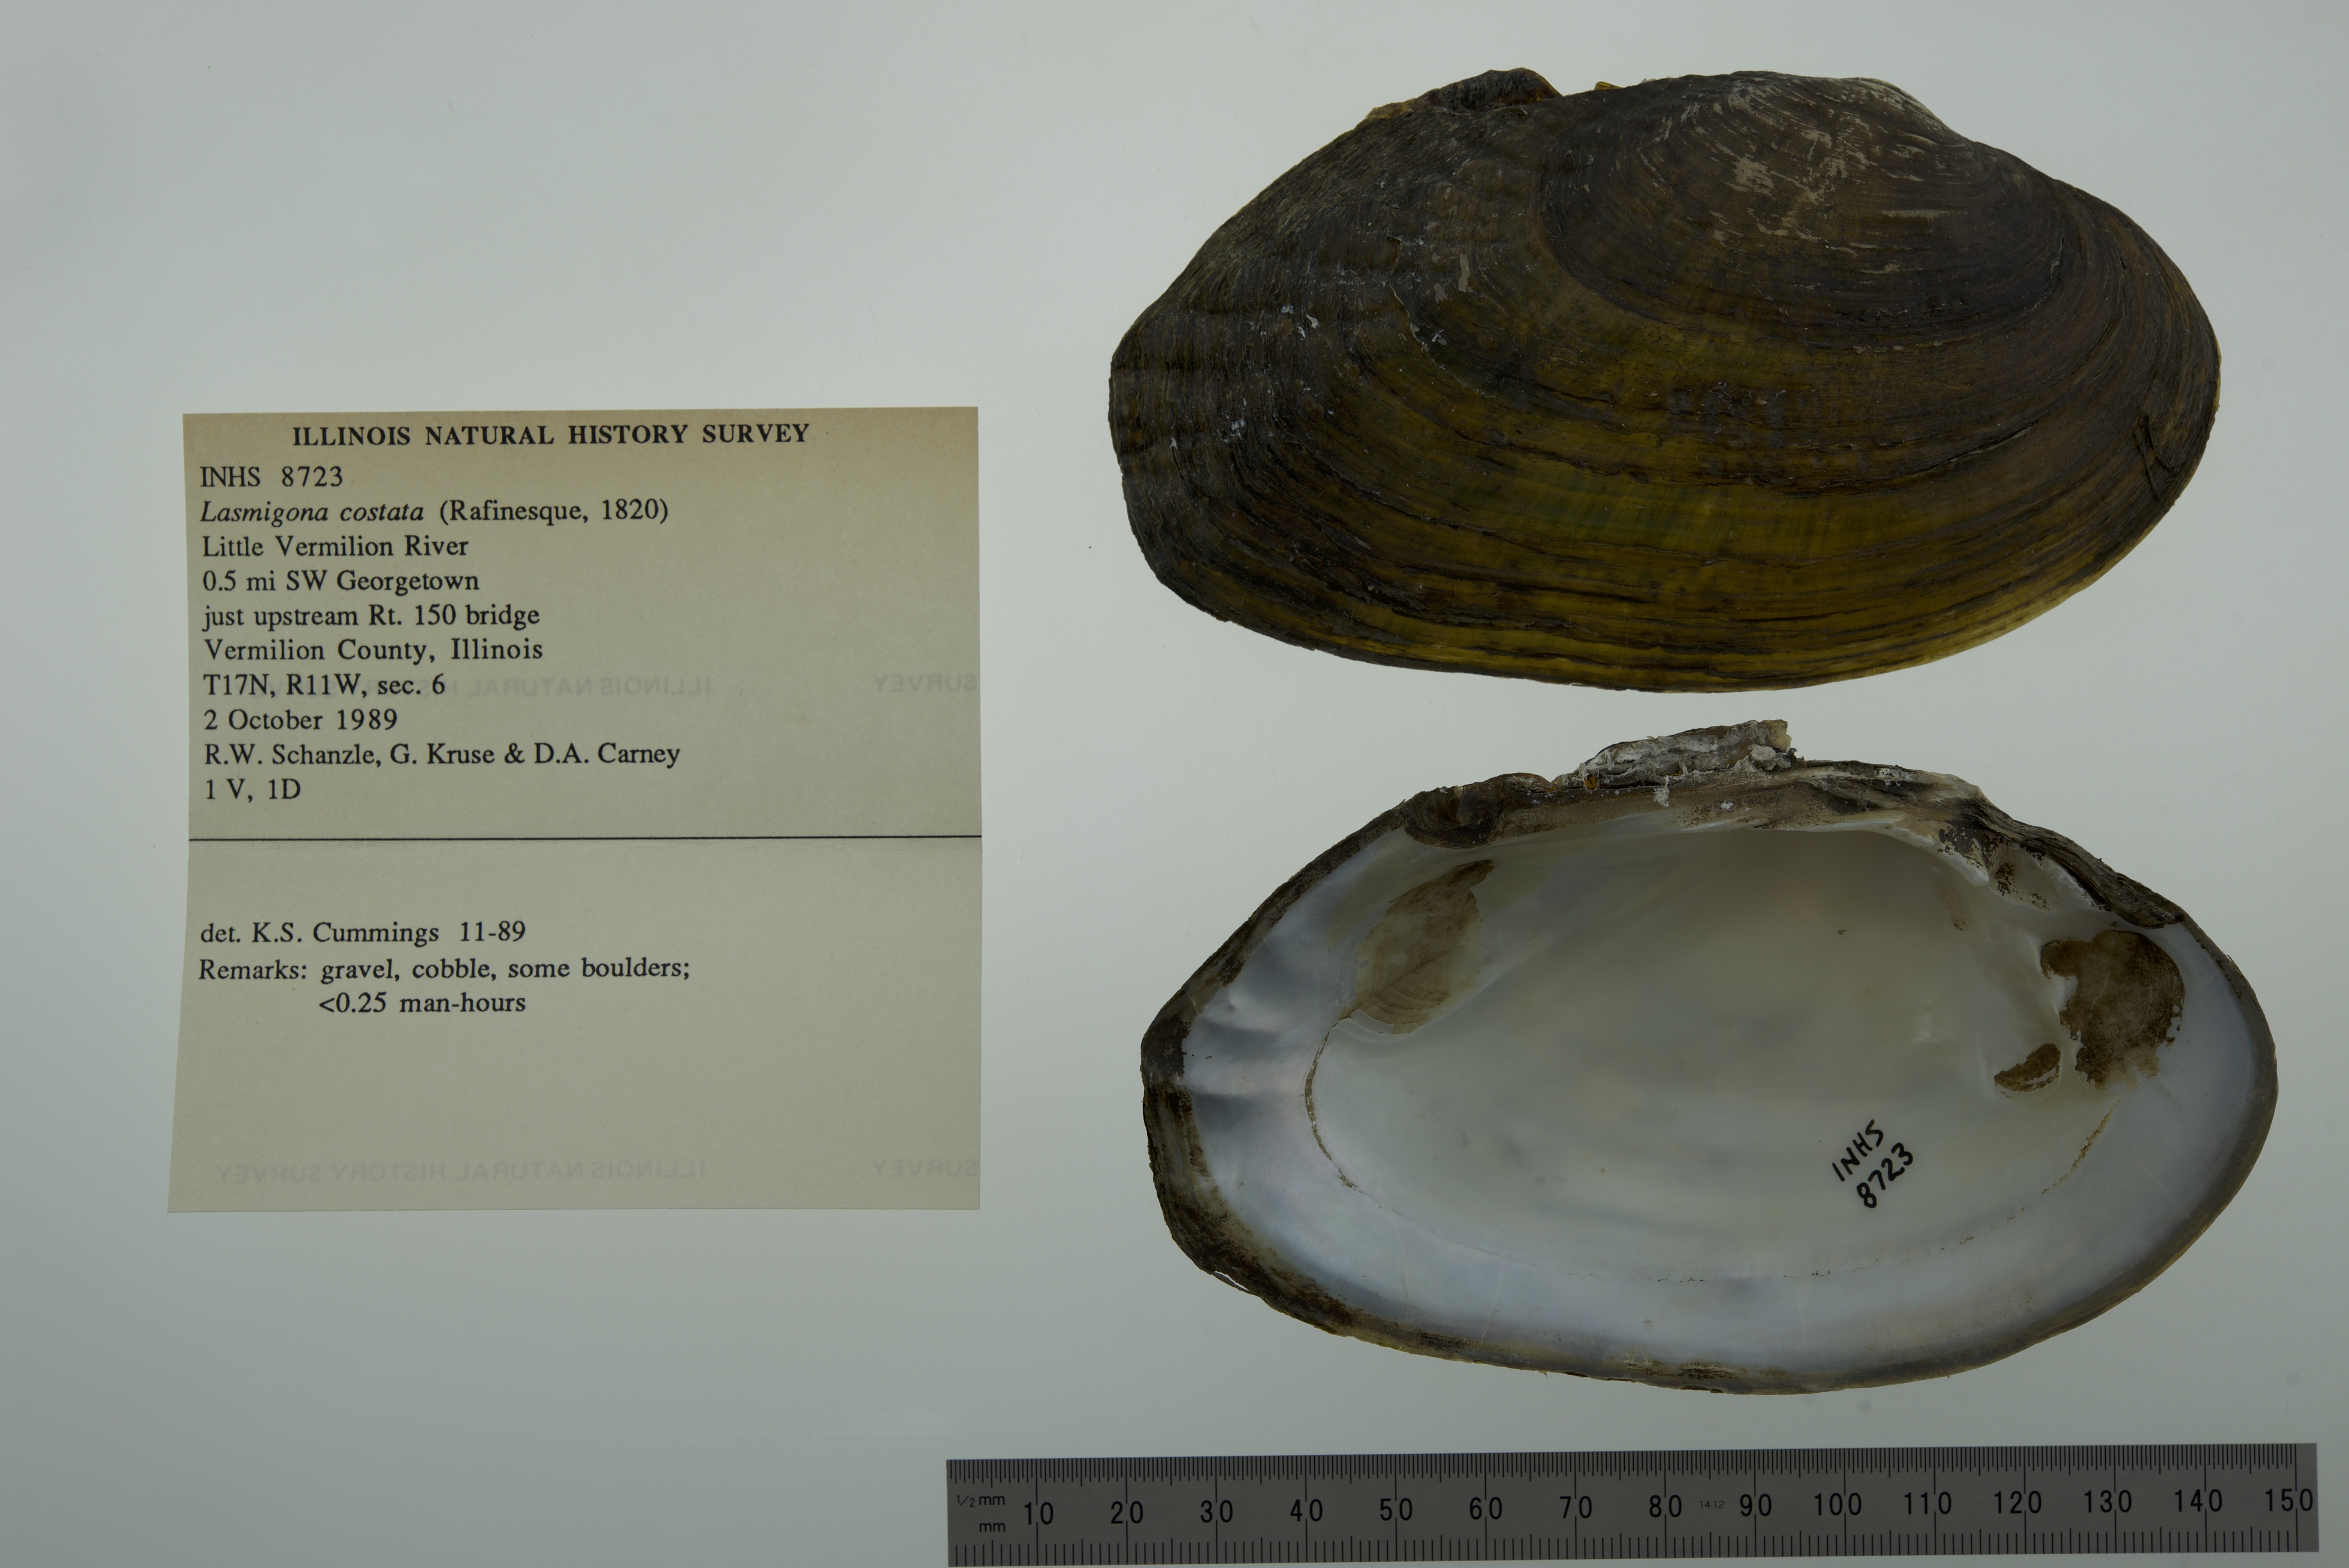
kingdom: Animalia
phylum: Mollusca
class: Bivalvia
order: Unionida
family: Unionidae
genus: Lasmigona
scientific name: Lasmigona costata
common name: Flutedshell
